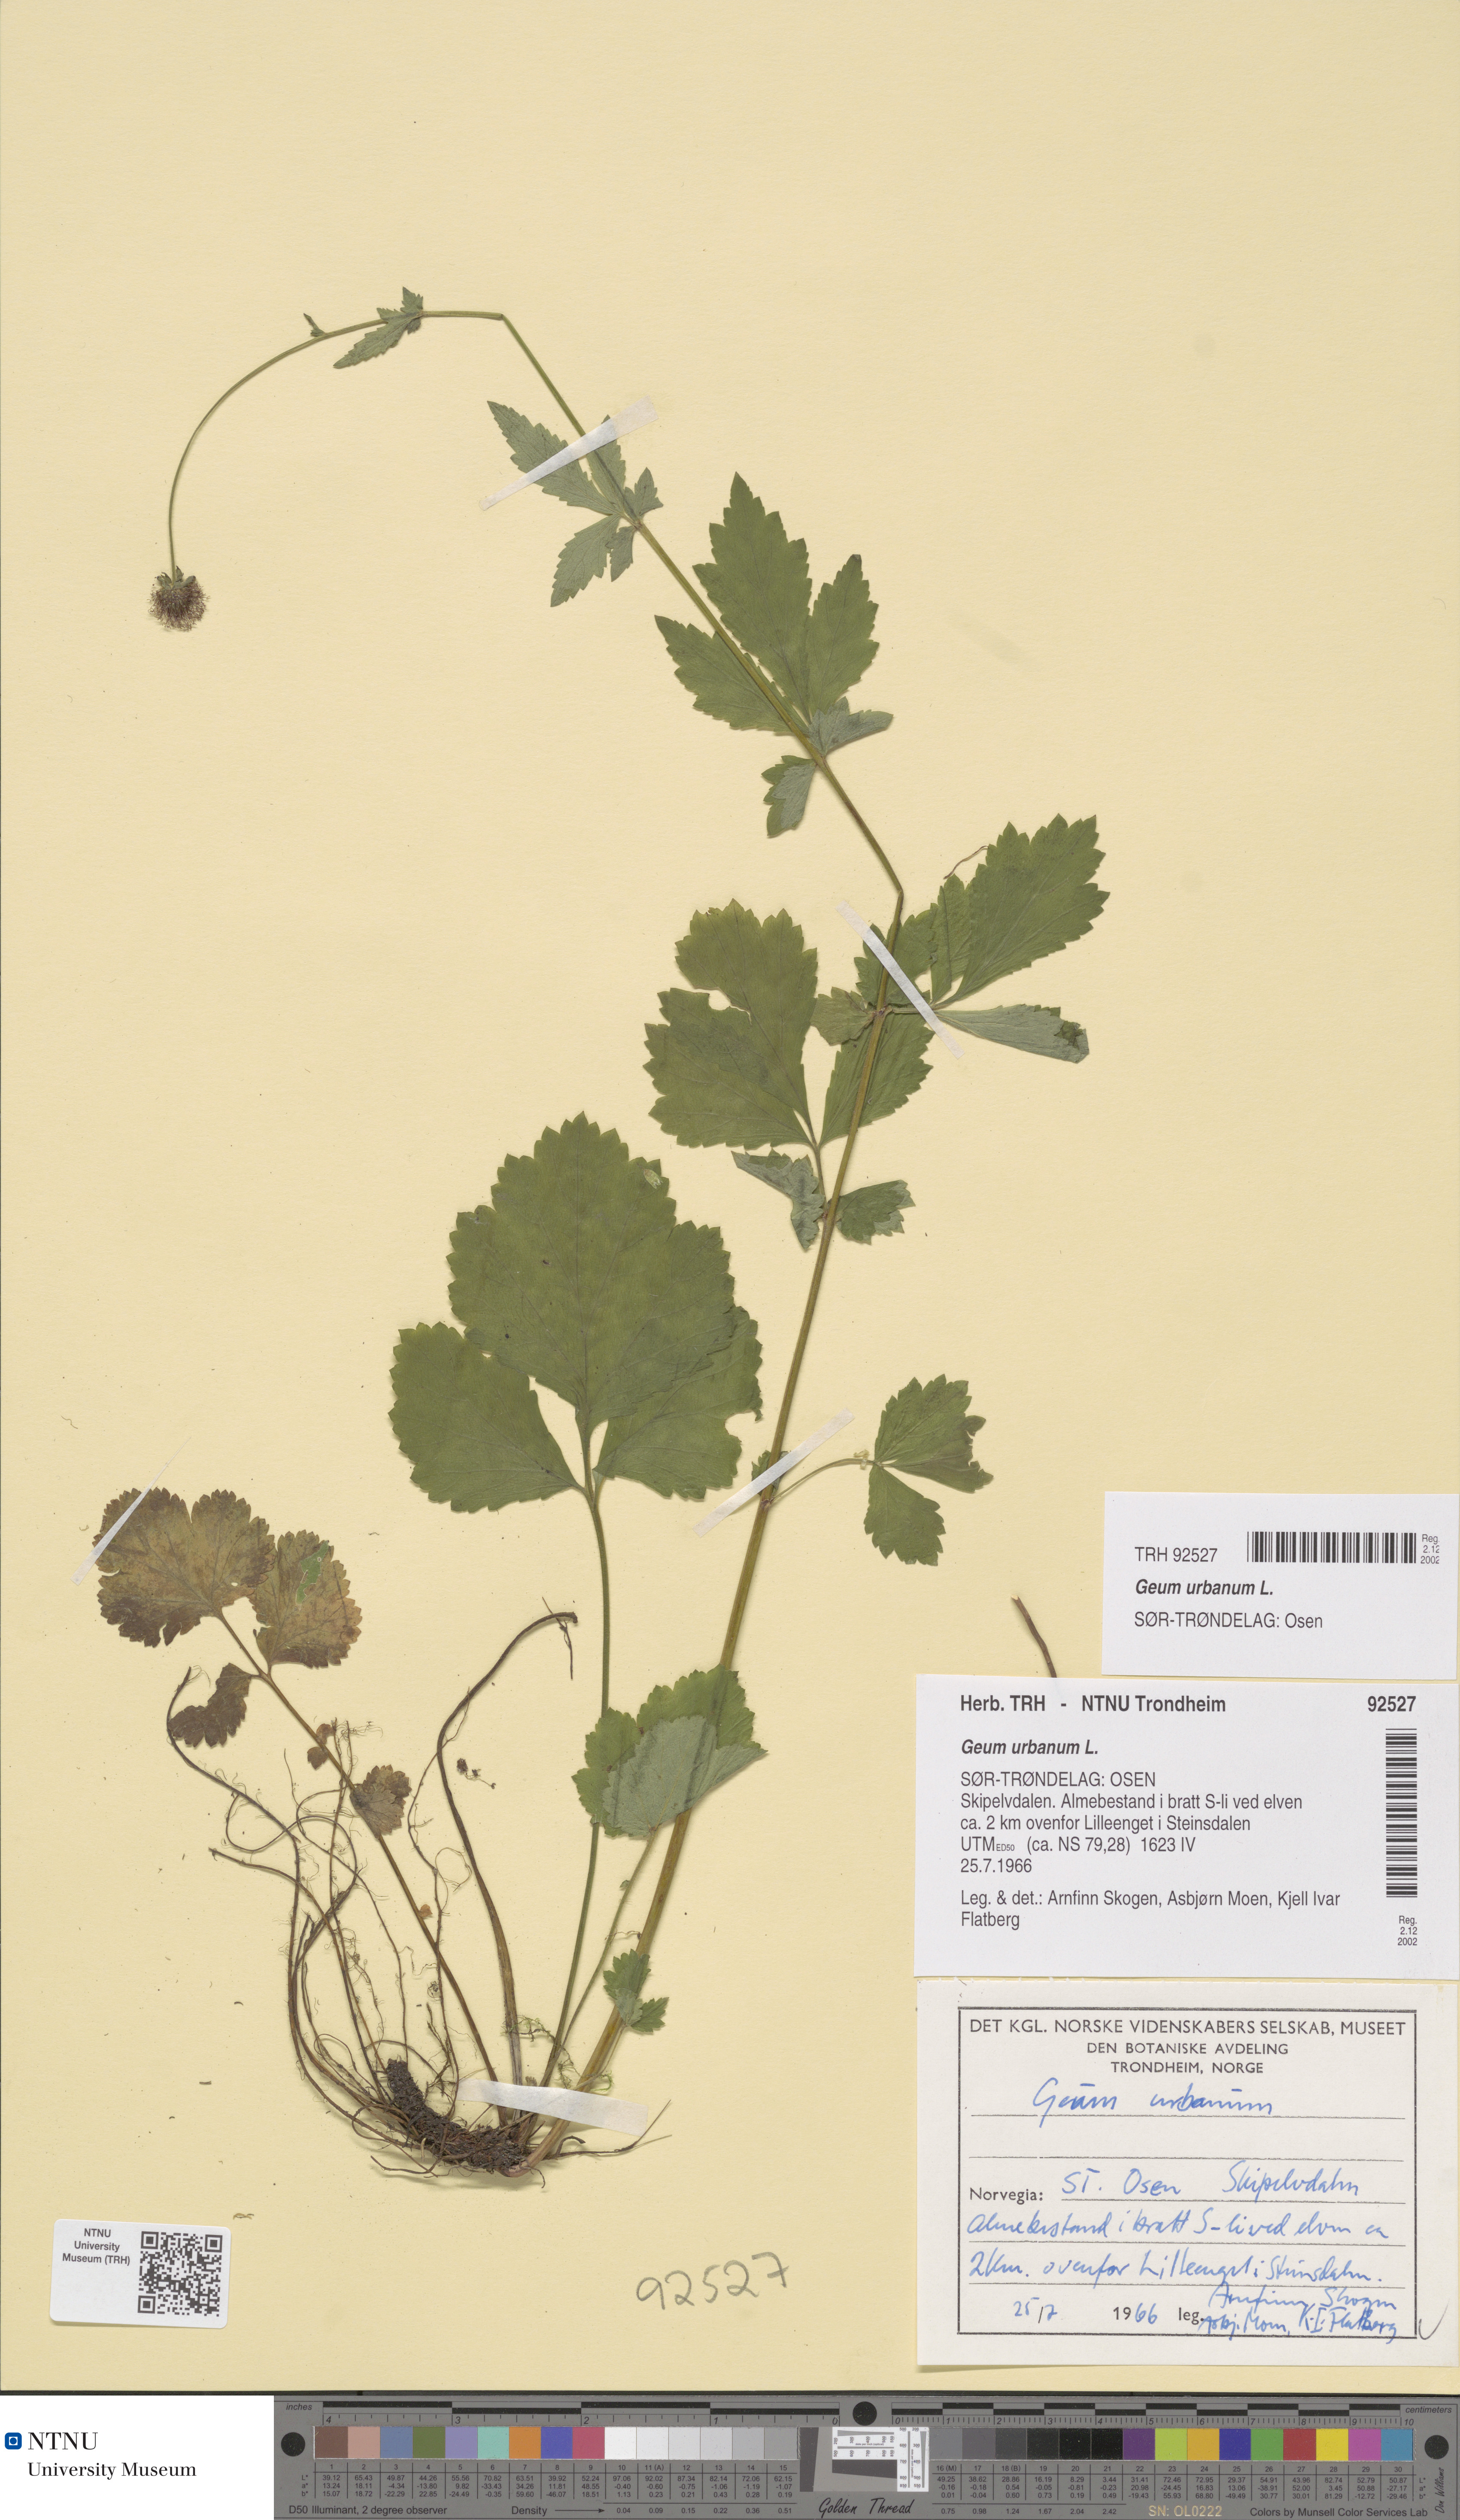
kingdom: Plantae
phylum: Tracheophyta
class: Magnoliopsida
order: Rosales
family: Rosaceae
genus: Geum
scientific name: Geum urbanum
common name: Wood avens
